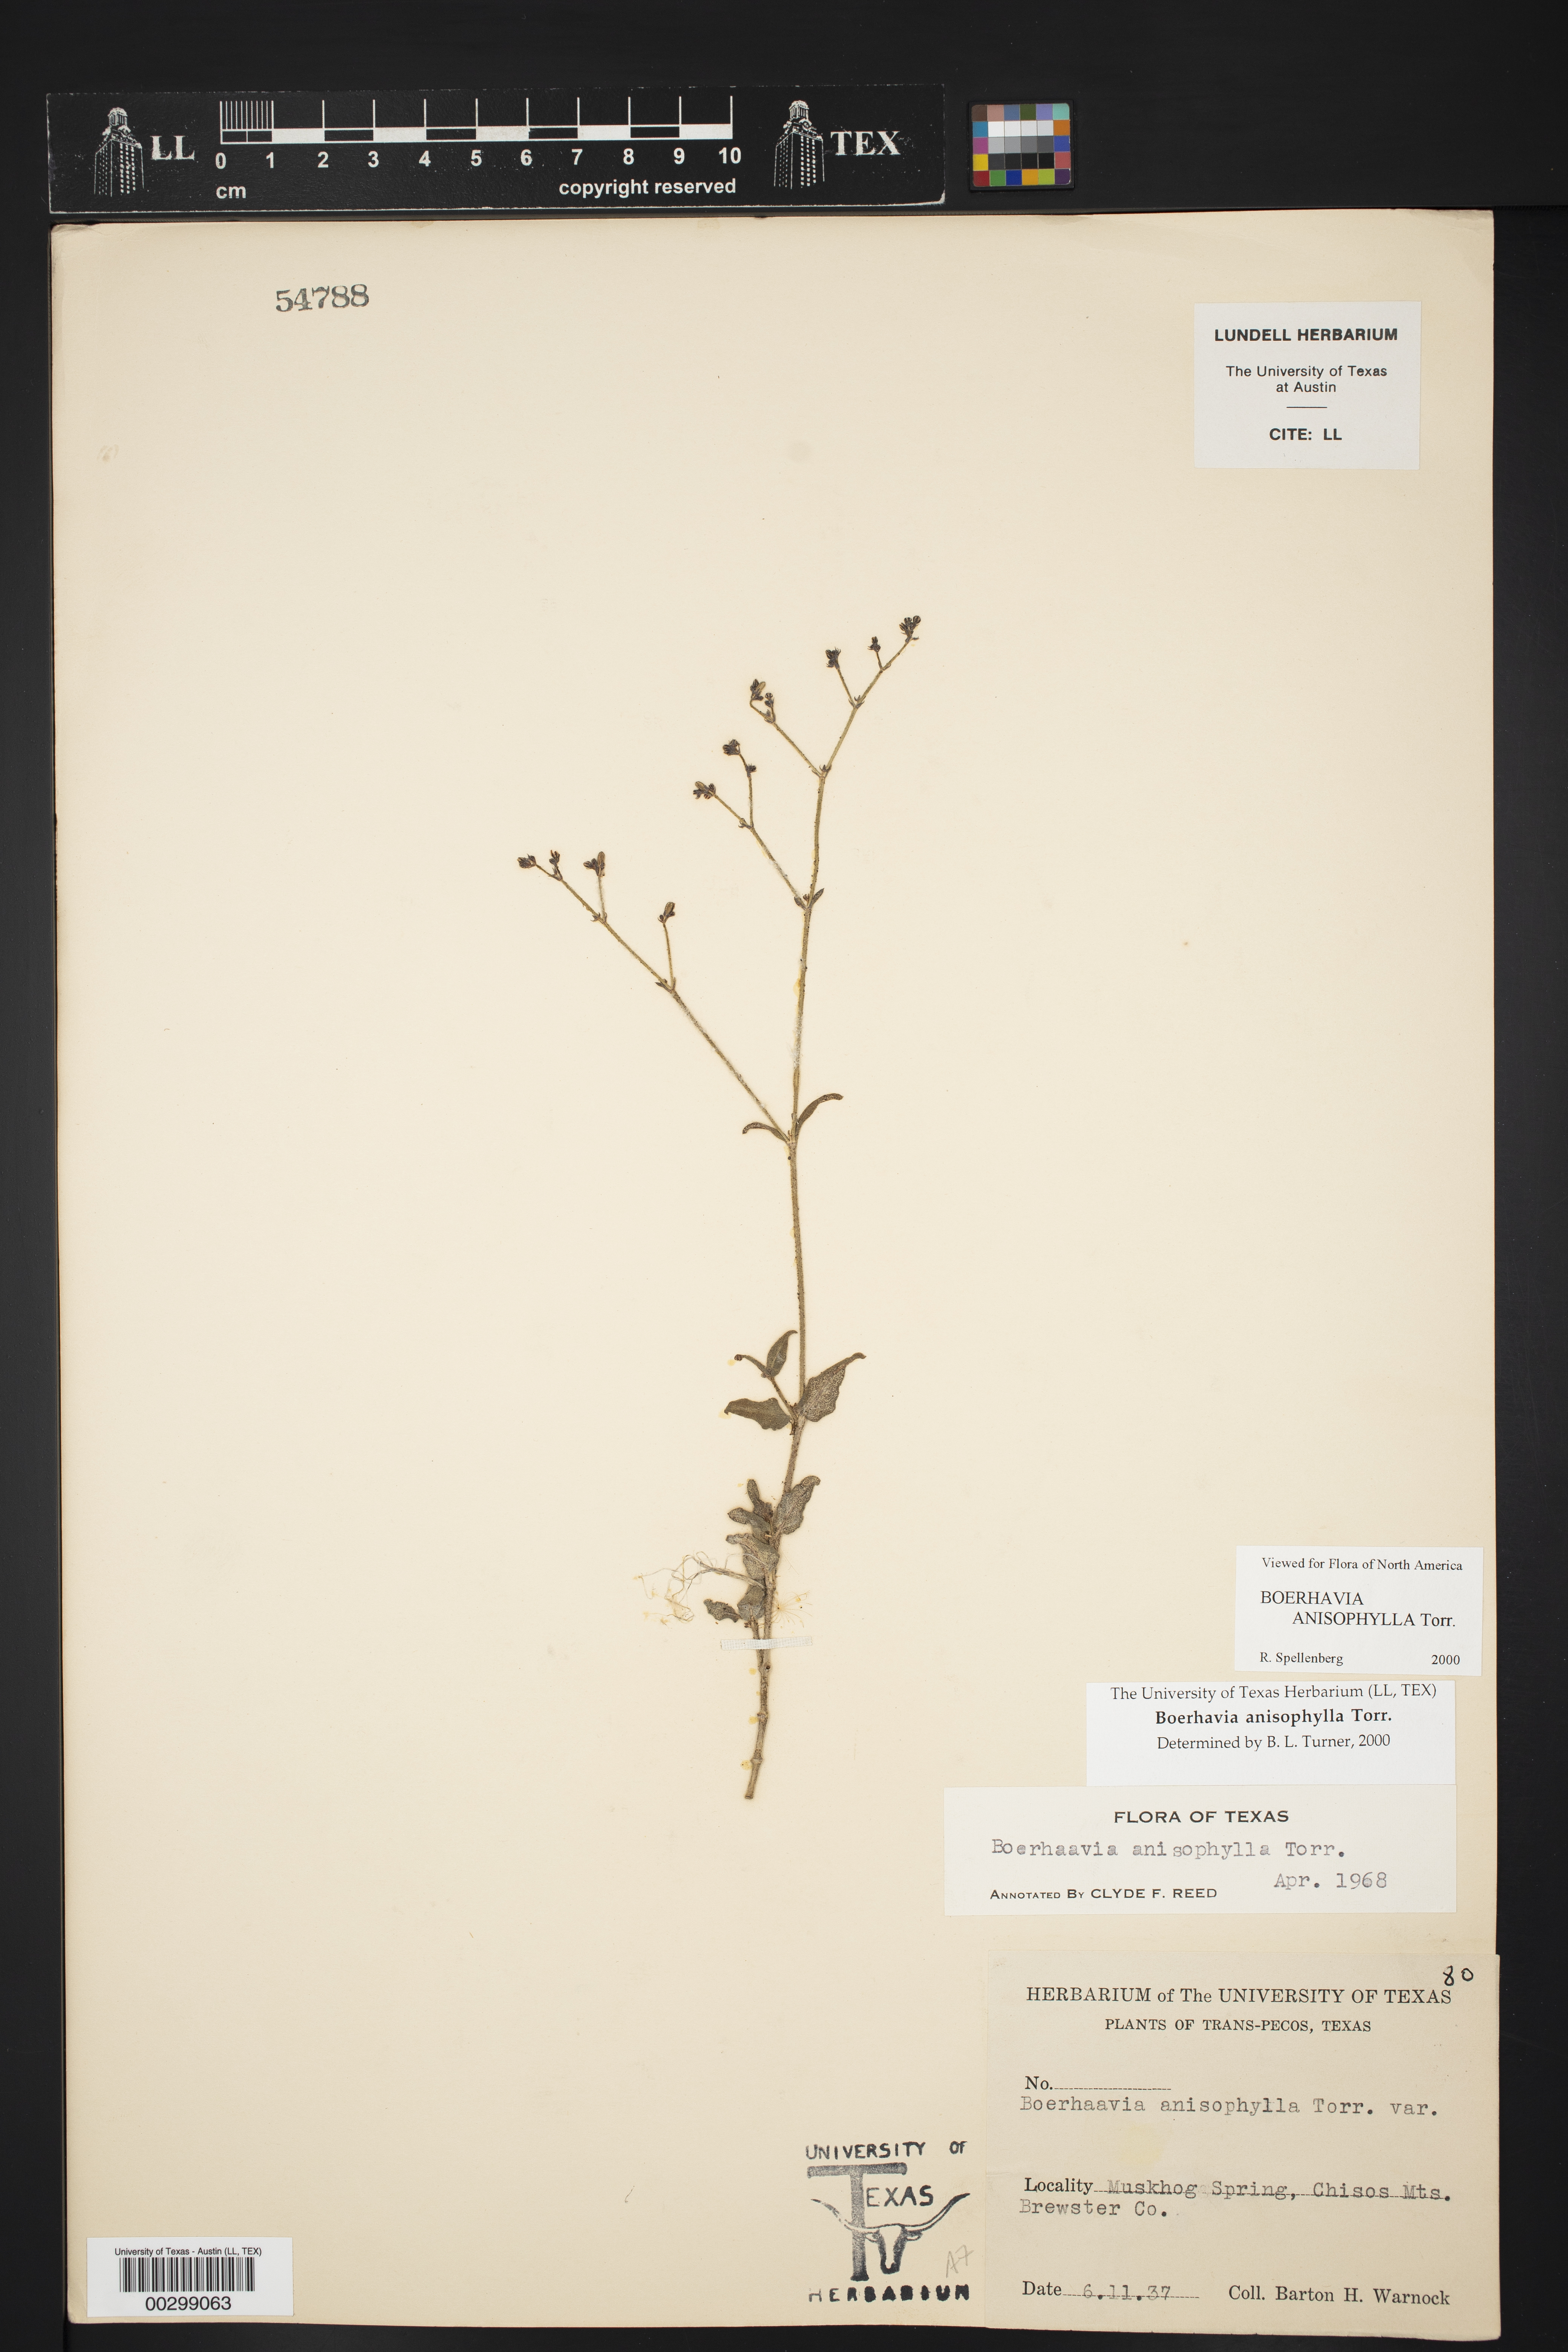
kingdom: Plantae
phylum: Tracheophyta
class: Magnoliopsida
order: Caryophyllales
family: Nyctaginaceae
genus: Boerhavia
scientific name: Boerhavia anisophylla
